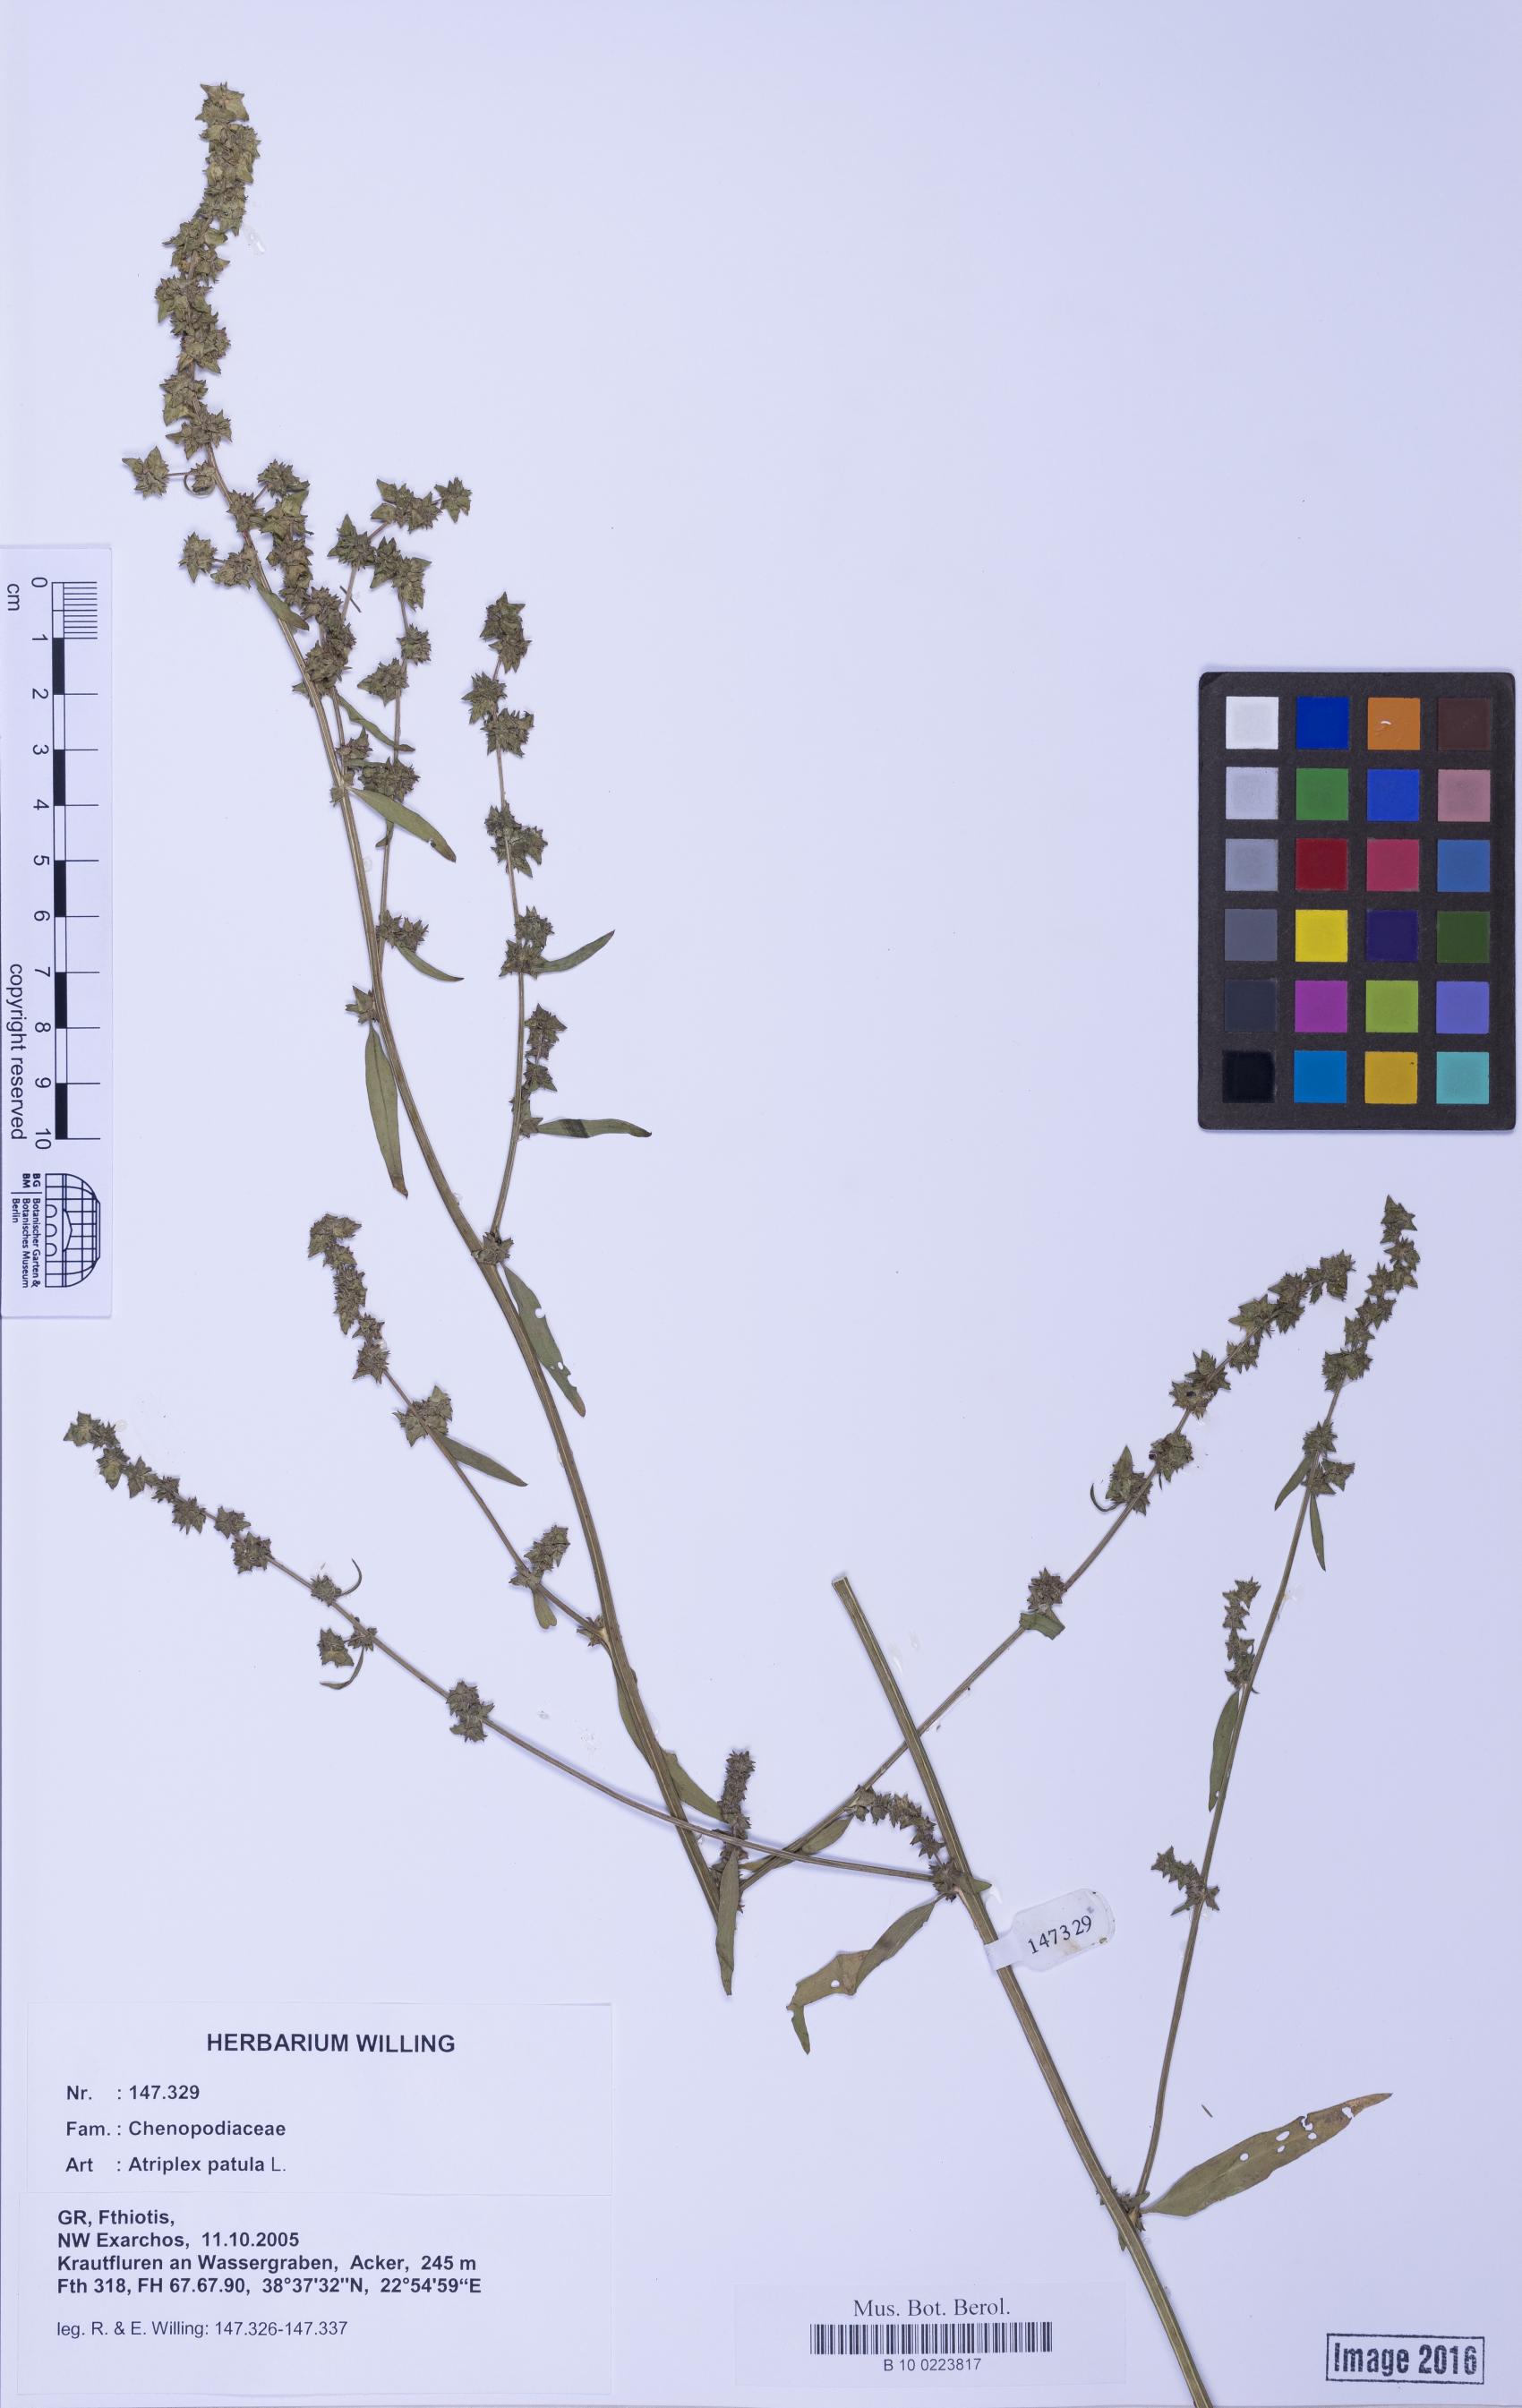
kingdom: Plantae
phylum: Tracheophyta
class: Magnoliopsida
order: Caryophyllales
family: Amaranthaceae
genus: Atriplex
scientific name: Atriplex patula
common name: Common orache
